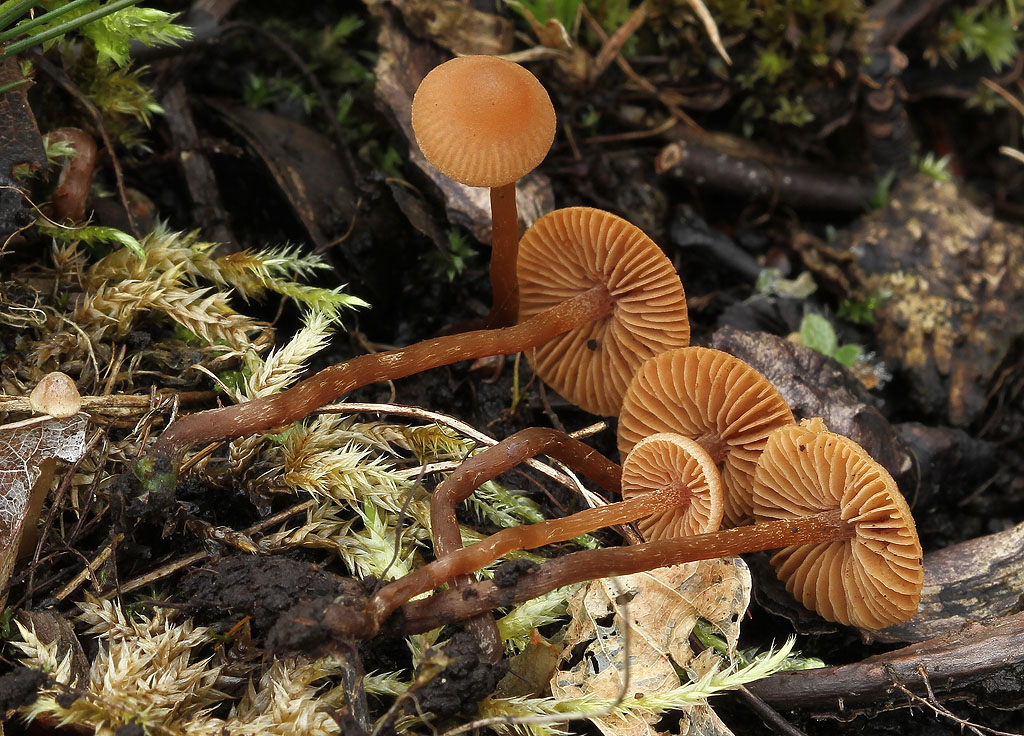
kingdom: Fungi
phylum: Basidiomycota
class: Agaricomycetes
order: Agaricales
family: Hymenogastraceae
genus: Naucoria
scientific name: Naucoria scolecina
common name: mørk elle-knaphat
